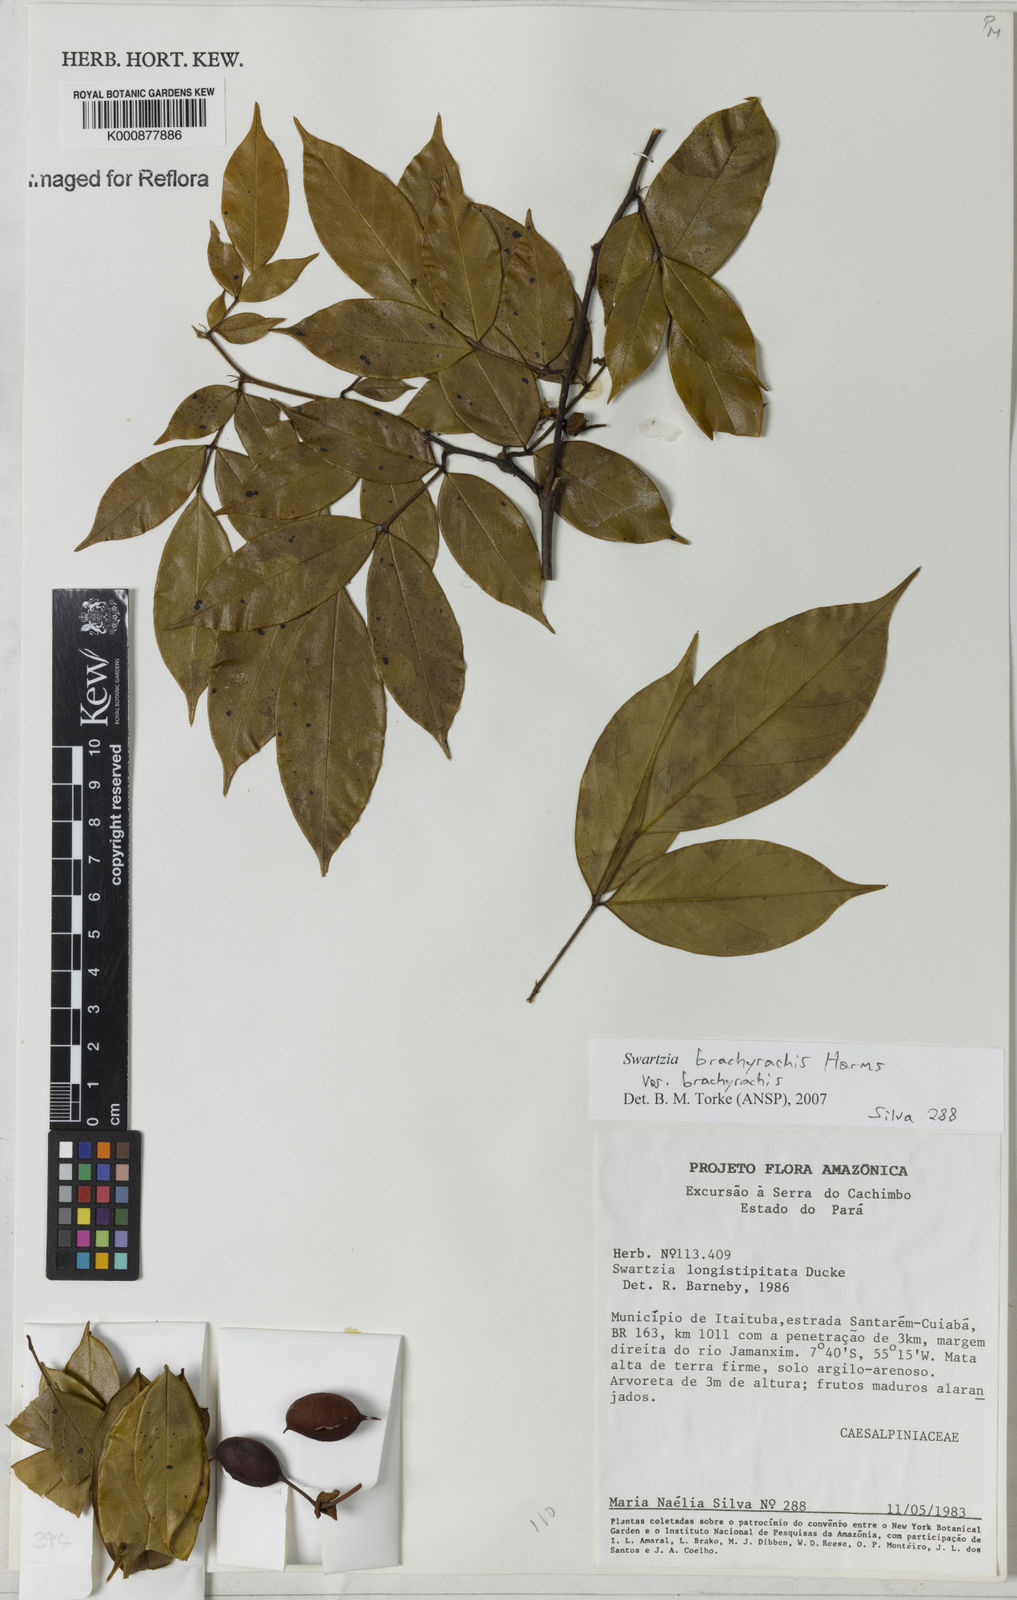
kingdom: Plantae
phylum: Tracheophyta
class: Magnoliopsida
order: Fabales
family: Fabaceae
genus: Swartzia
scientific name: Swartzia
